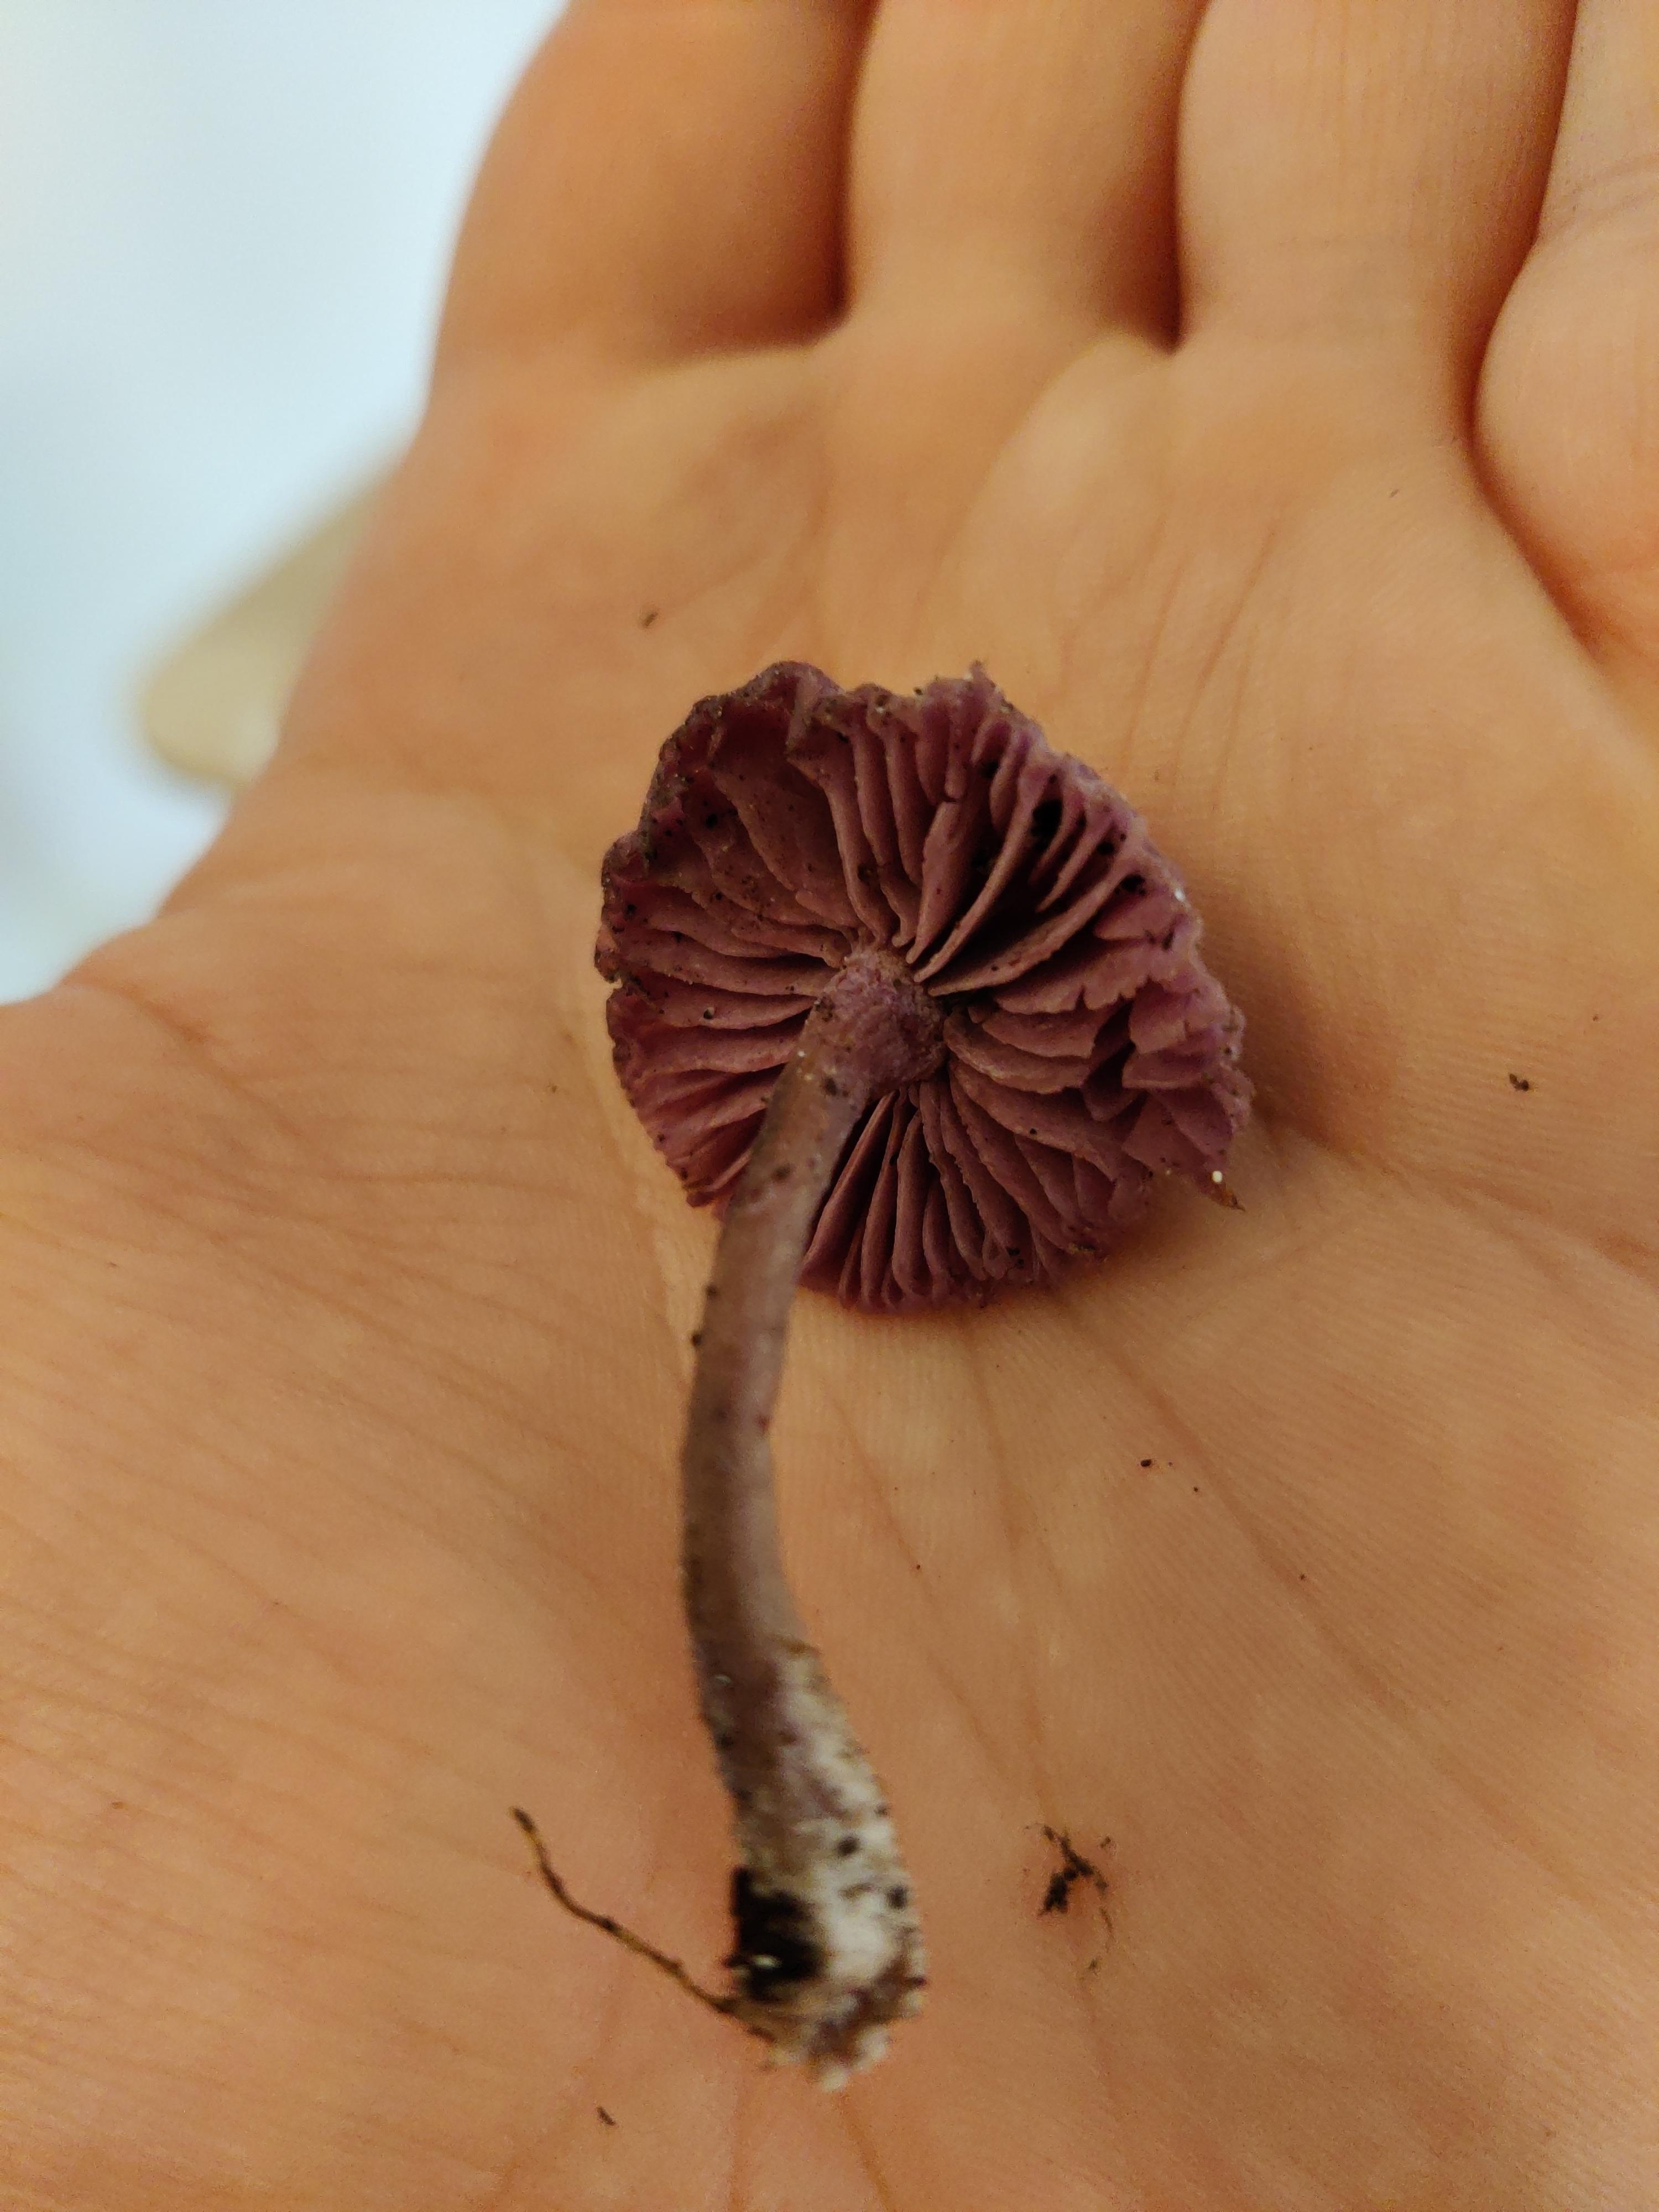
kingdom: Fungi
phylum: Basidiomycota
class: Agaricomycetes
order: Agaricales
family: Hydnangiaceae
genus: Laccaria
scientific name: Laccaria amethystina
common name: violet ametysthat
